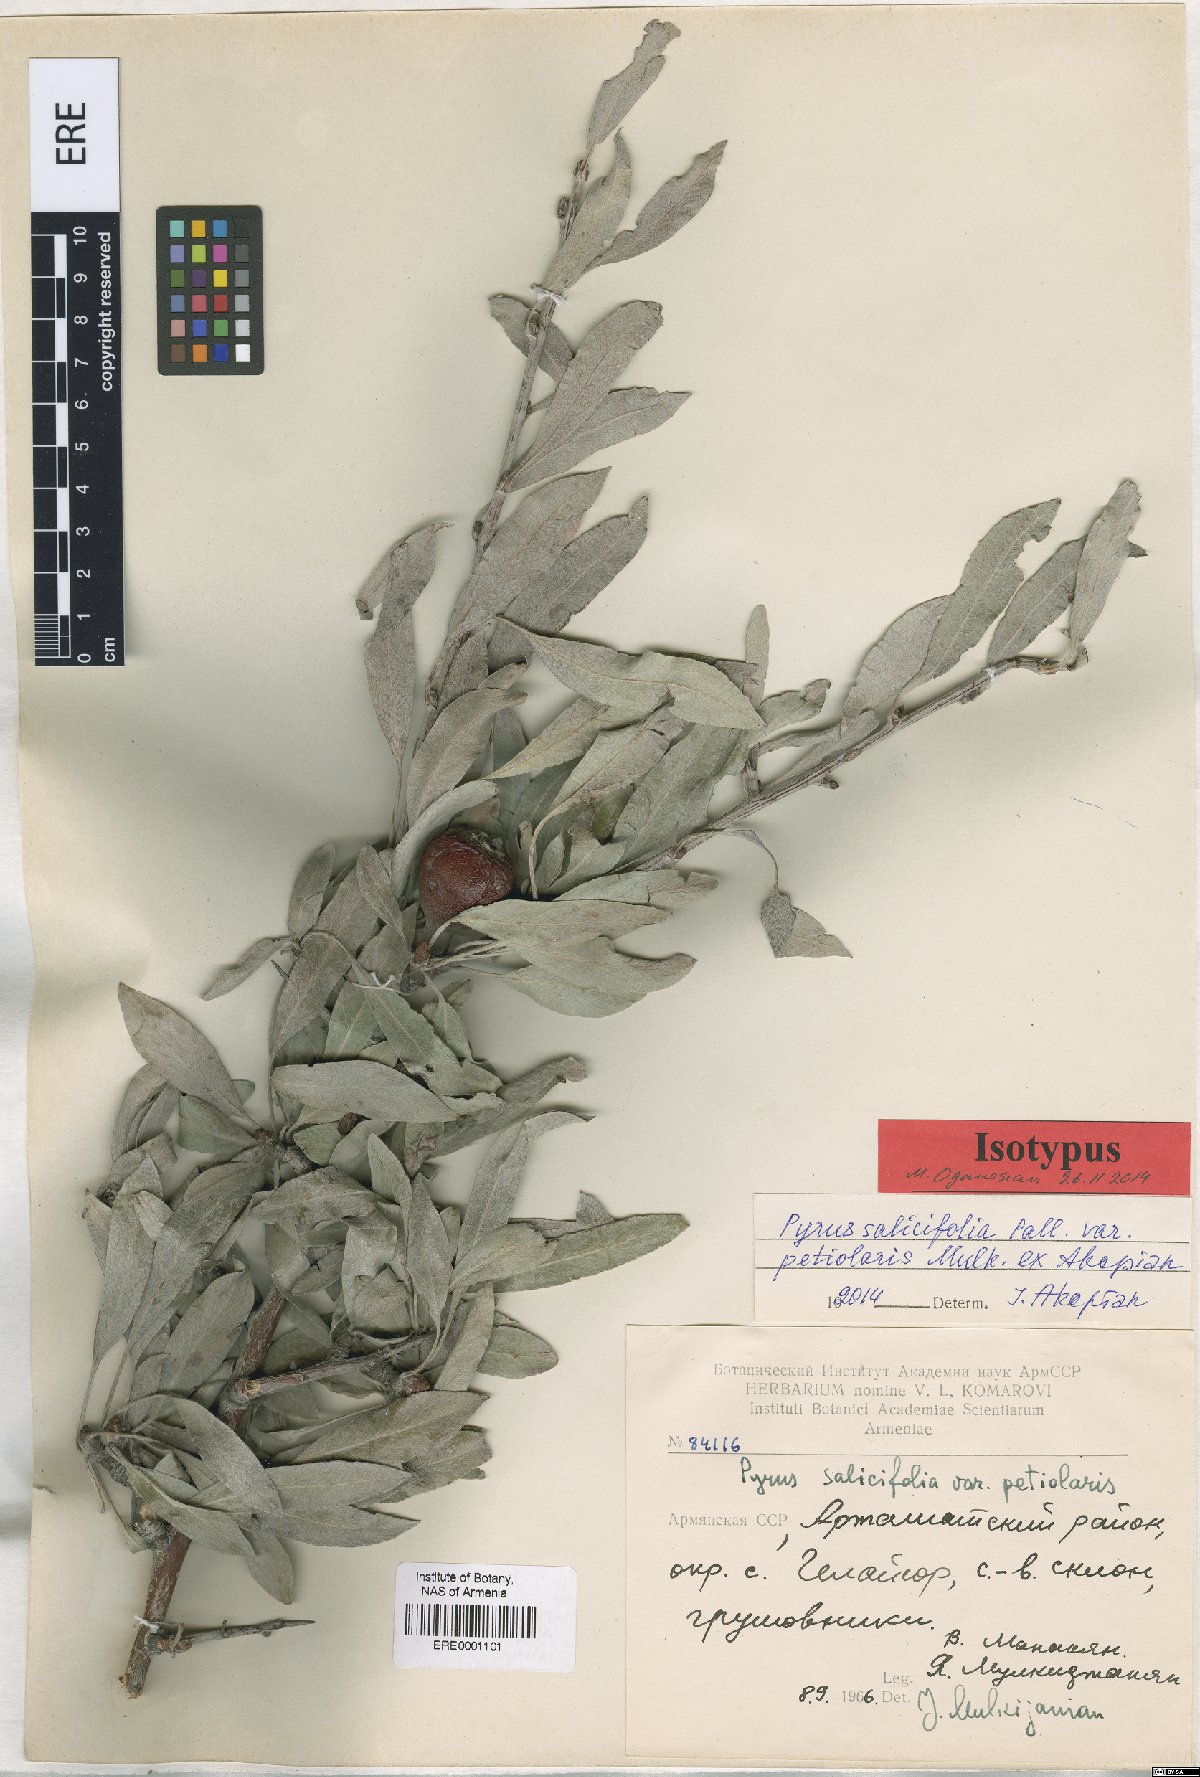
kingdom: Plantae
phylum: Tracheophyta
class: Magnoliopsida
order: Rosales
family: Rosaceae
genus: Pyrus
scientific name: Pyrus salicifolia
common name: Willow-leaved pear
